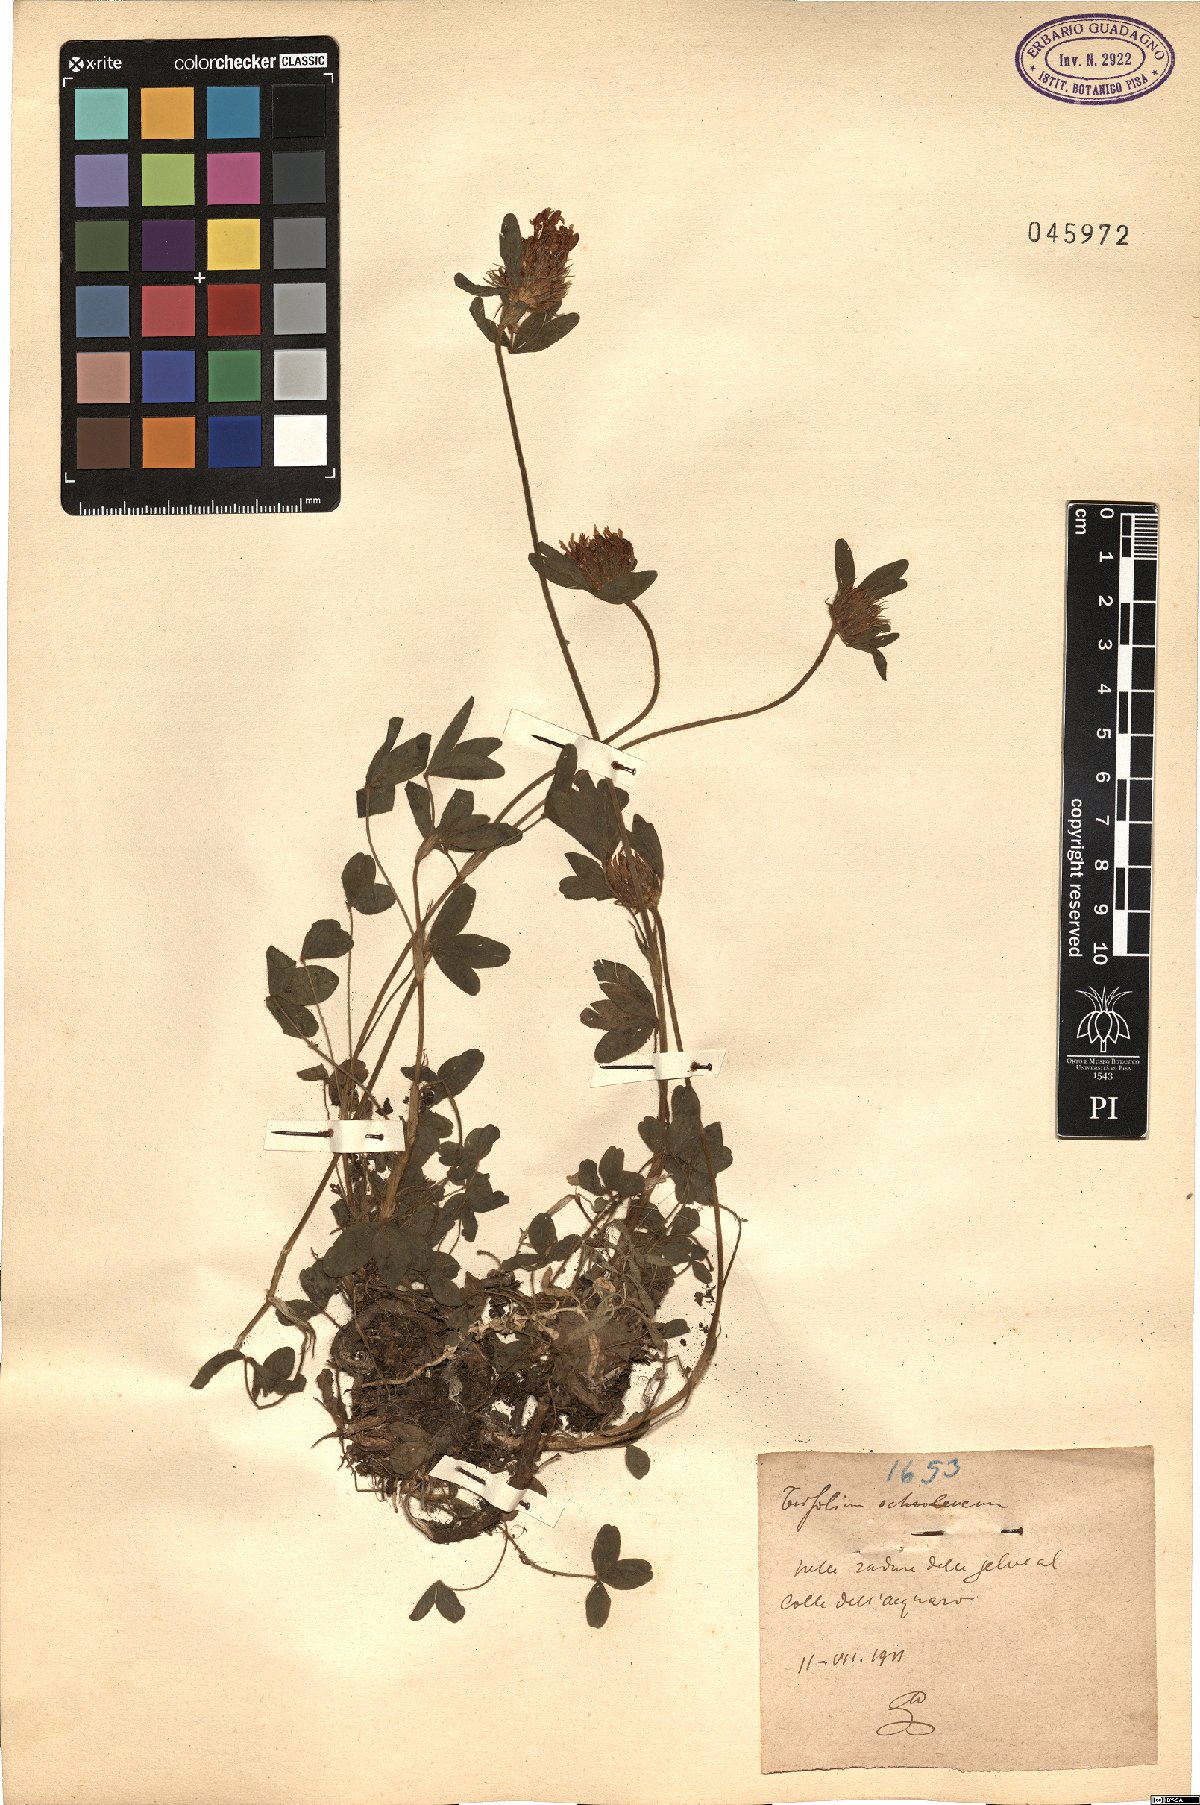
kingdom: Plantae
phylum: Tracheophyta
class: Magnoliopsida
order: Fabales
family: Fabaceae
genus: Trifolium
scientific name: Trifolium ochroleucon
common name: Sulphur clover
